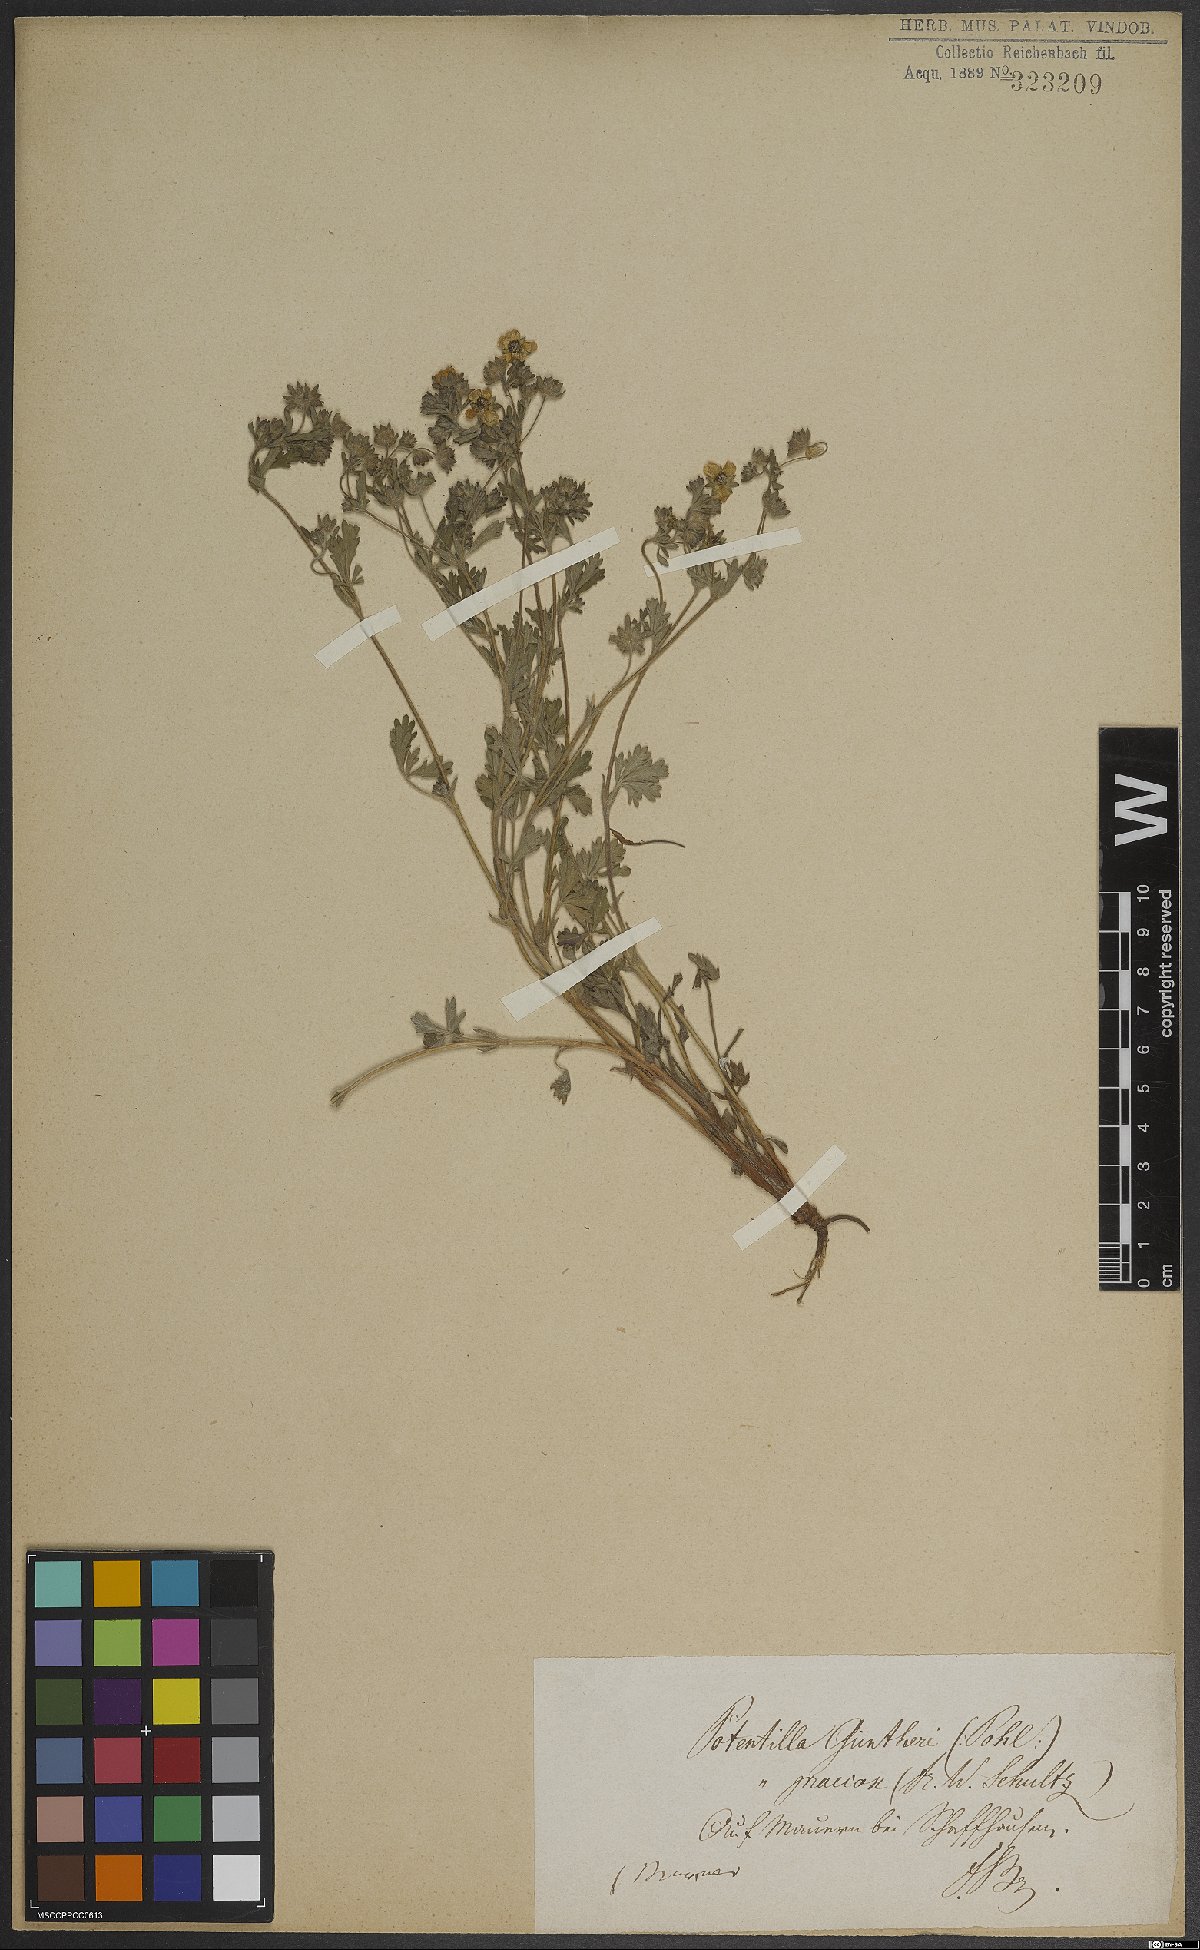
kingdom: Plantae
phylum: Tracheophyta
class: Magnoliopsida
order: Rosales
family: Rosaceae
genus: Potentilla
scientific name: Potentilla praecox
